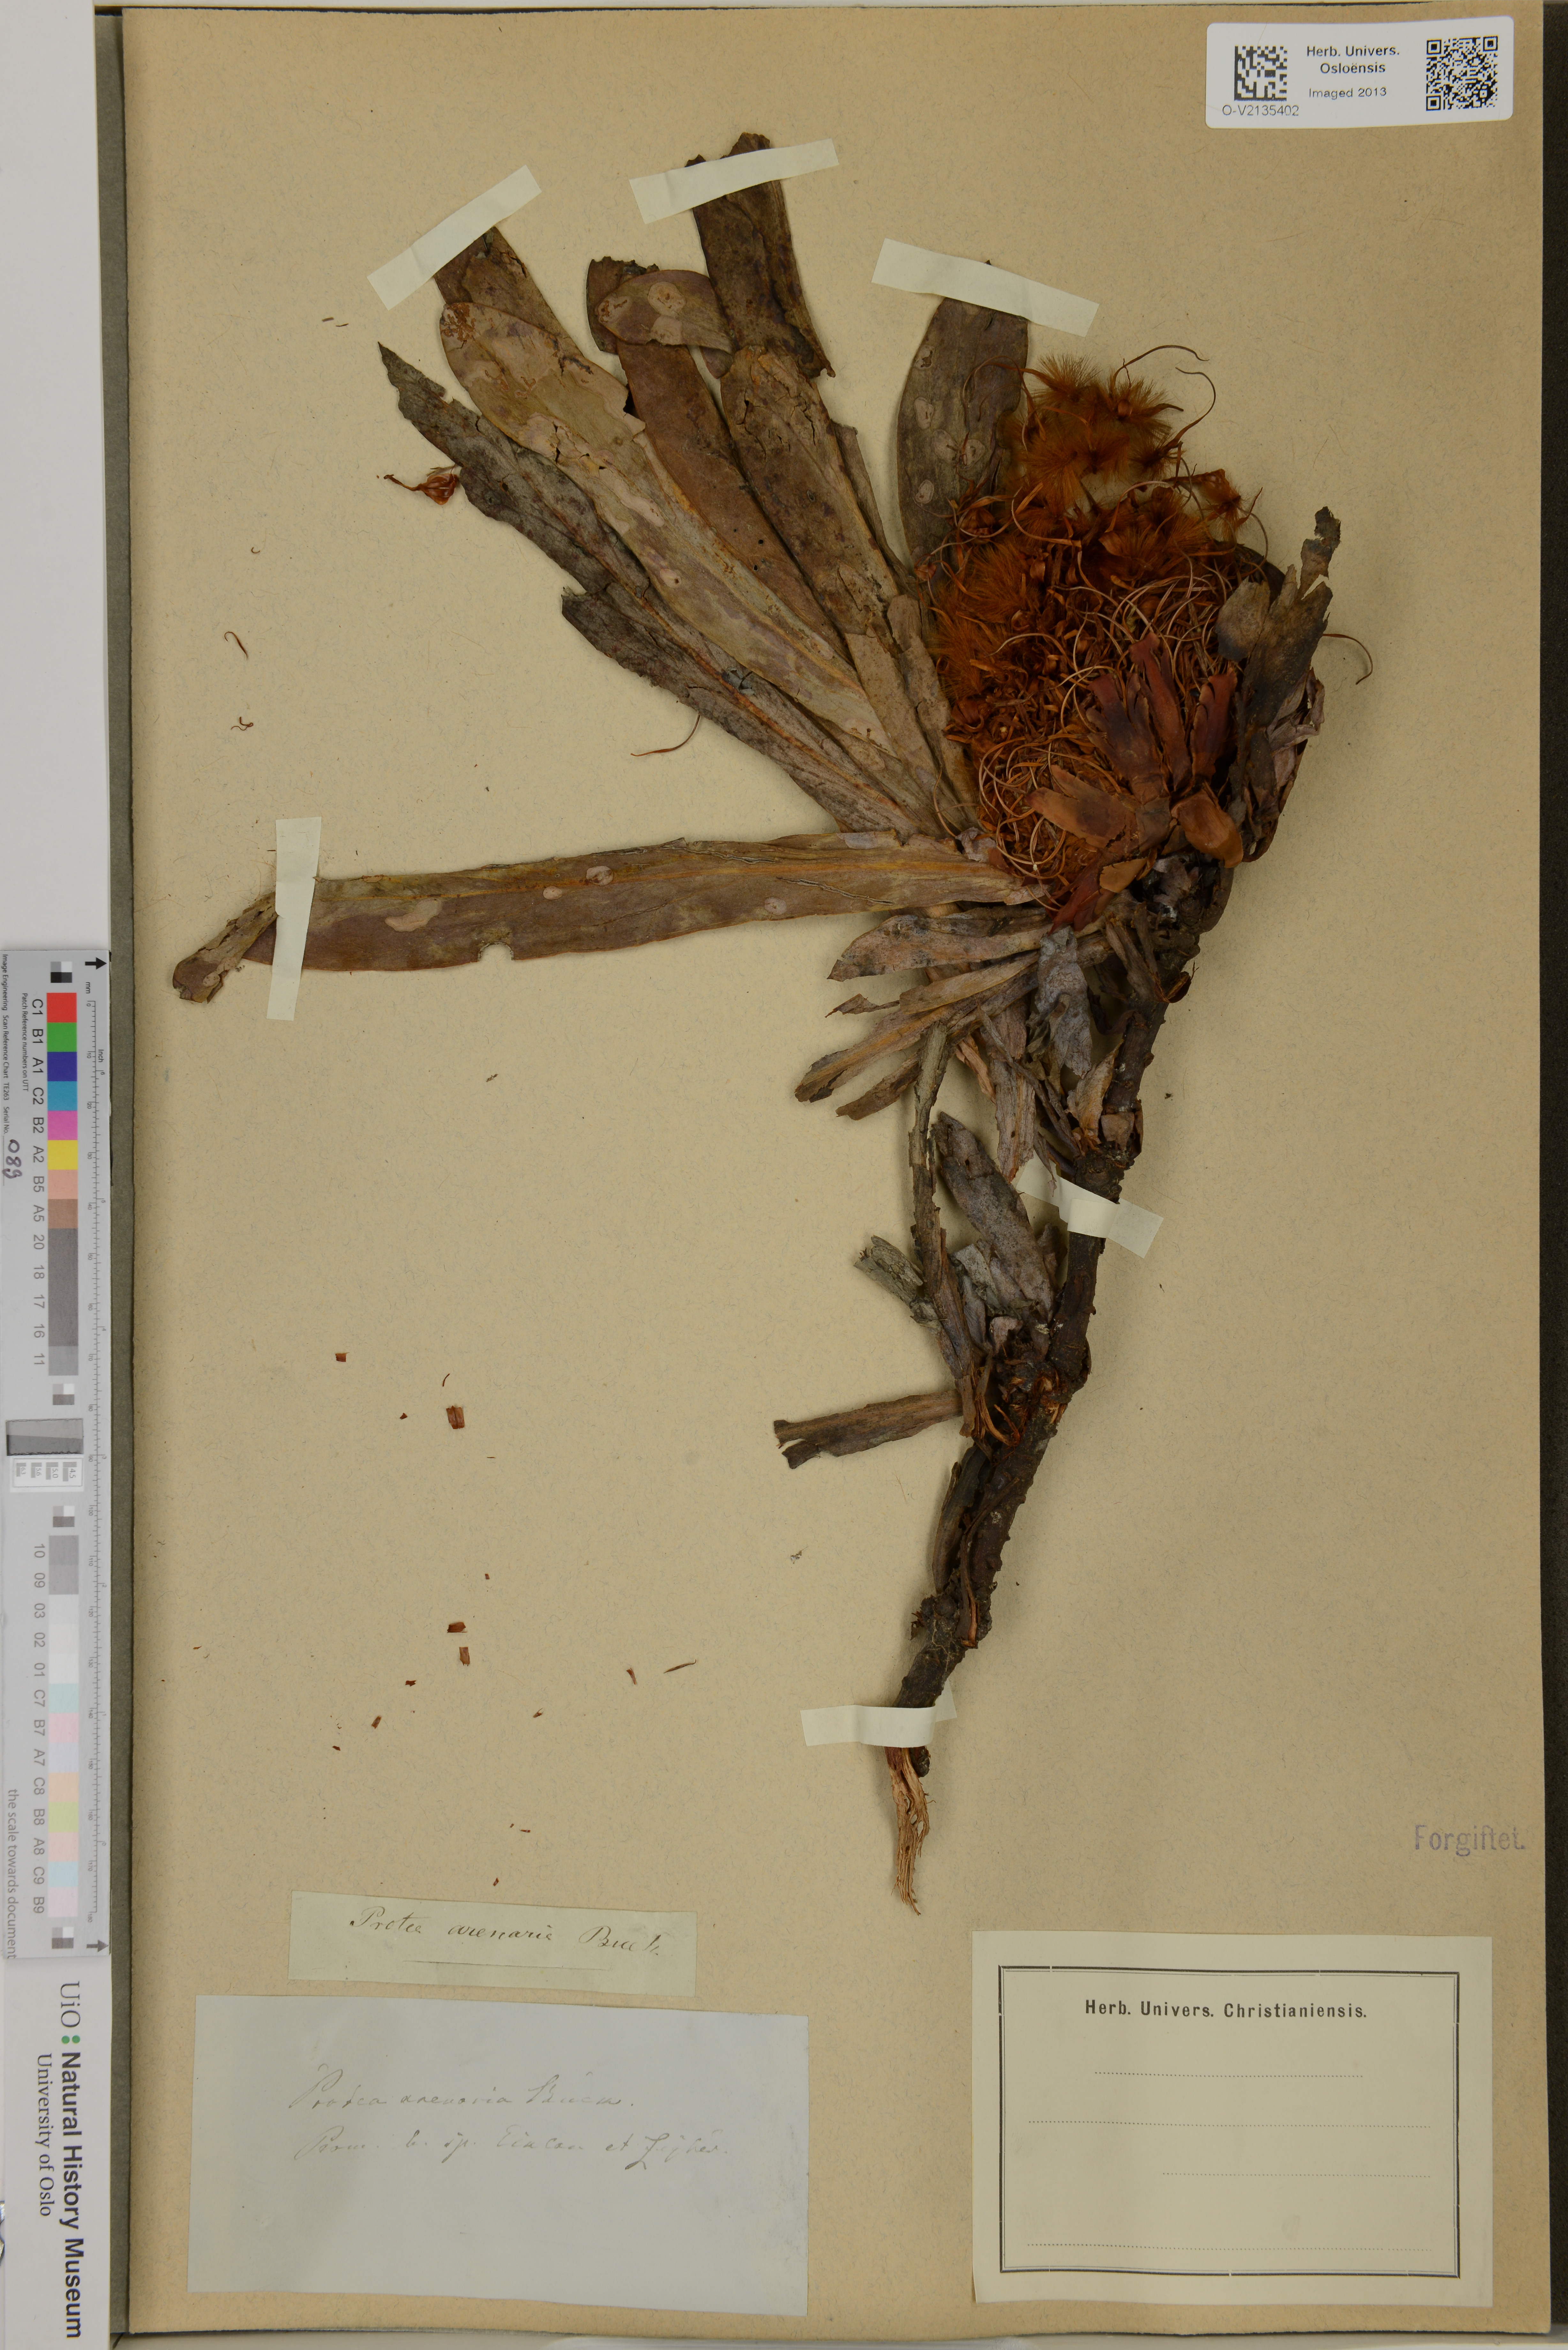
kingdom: Plantae
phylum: Tracheophyta
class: Magnoliopsida
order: Proteales
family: Proteaceae
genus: Protea
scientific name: Protea acaulos
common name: Common ground sugarbush
